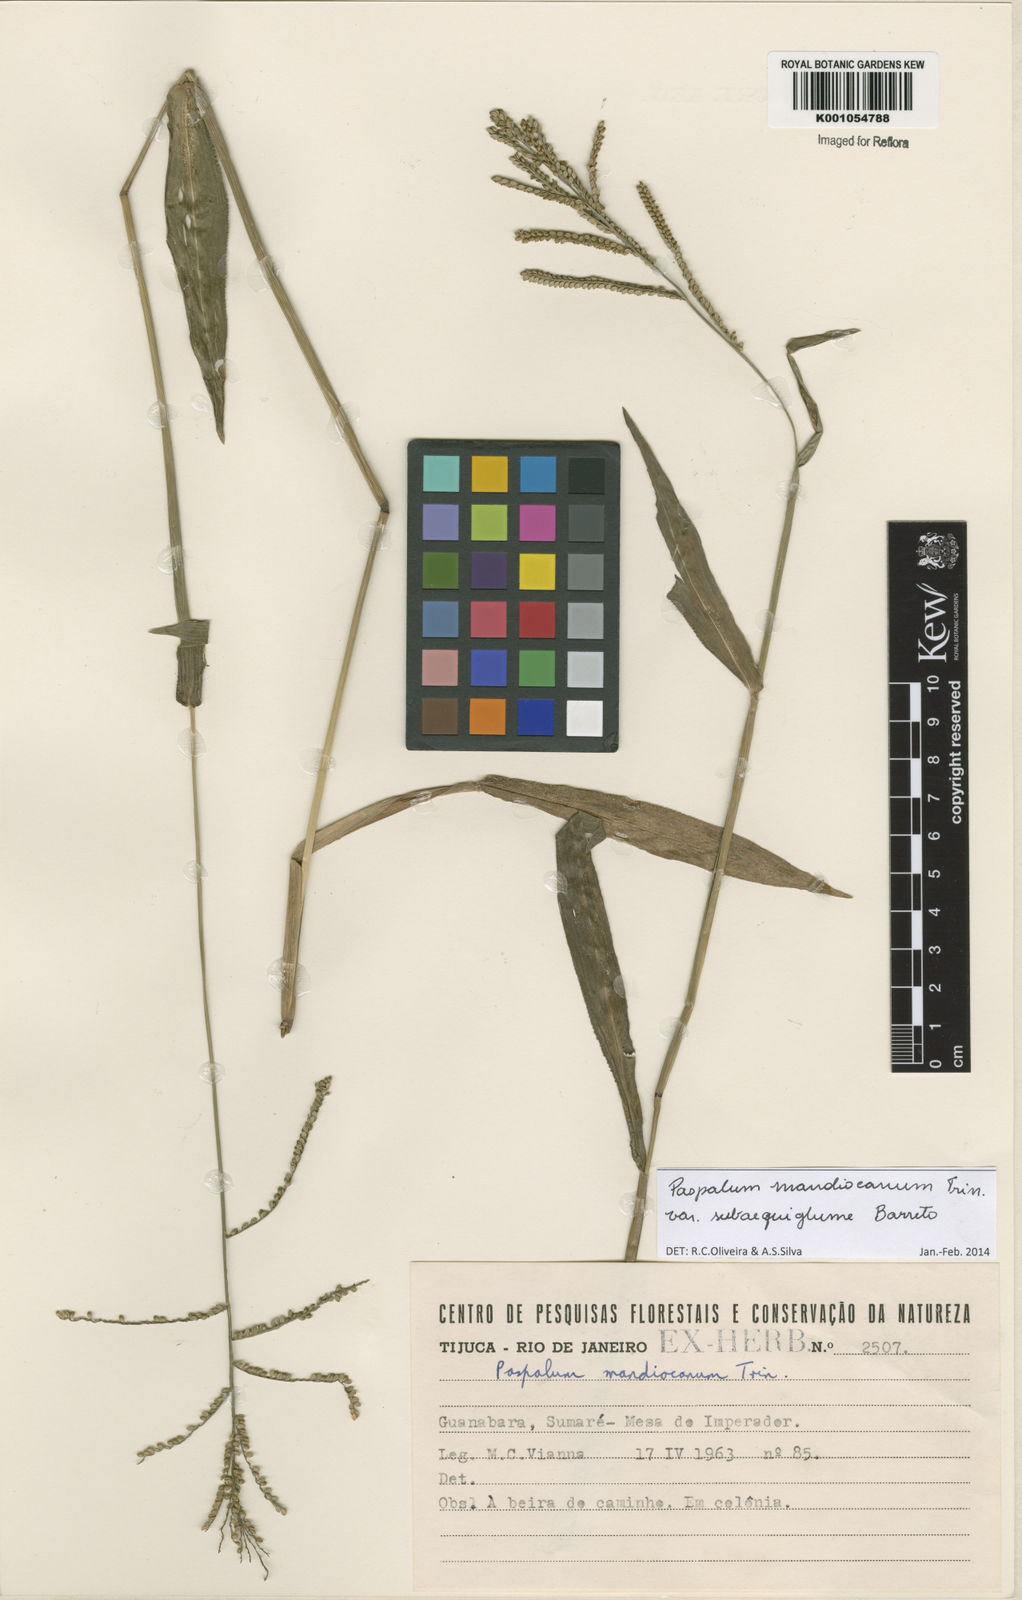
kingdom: Plantae
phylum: Tracheophyta
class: Liliopsida
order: Poales
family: Poaceae
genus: Paspalum
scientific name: Paspalum mandiocanum
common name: Paspalum
